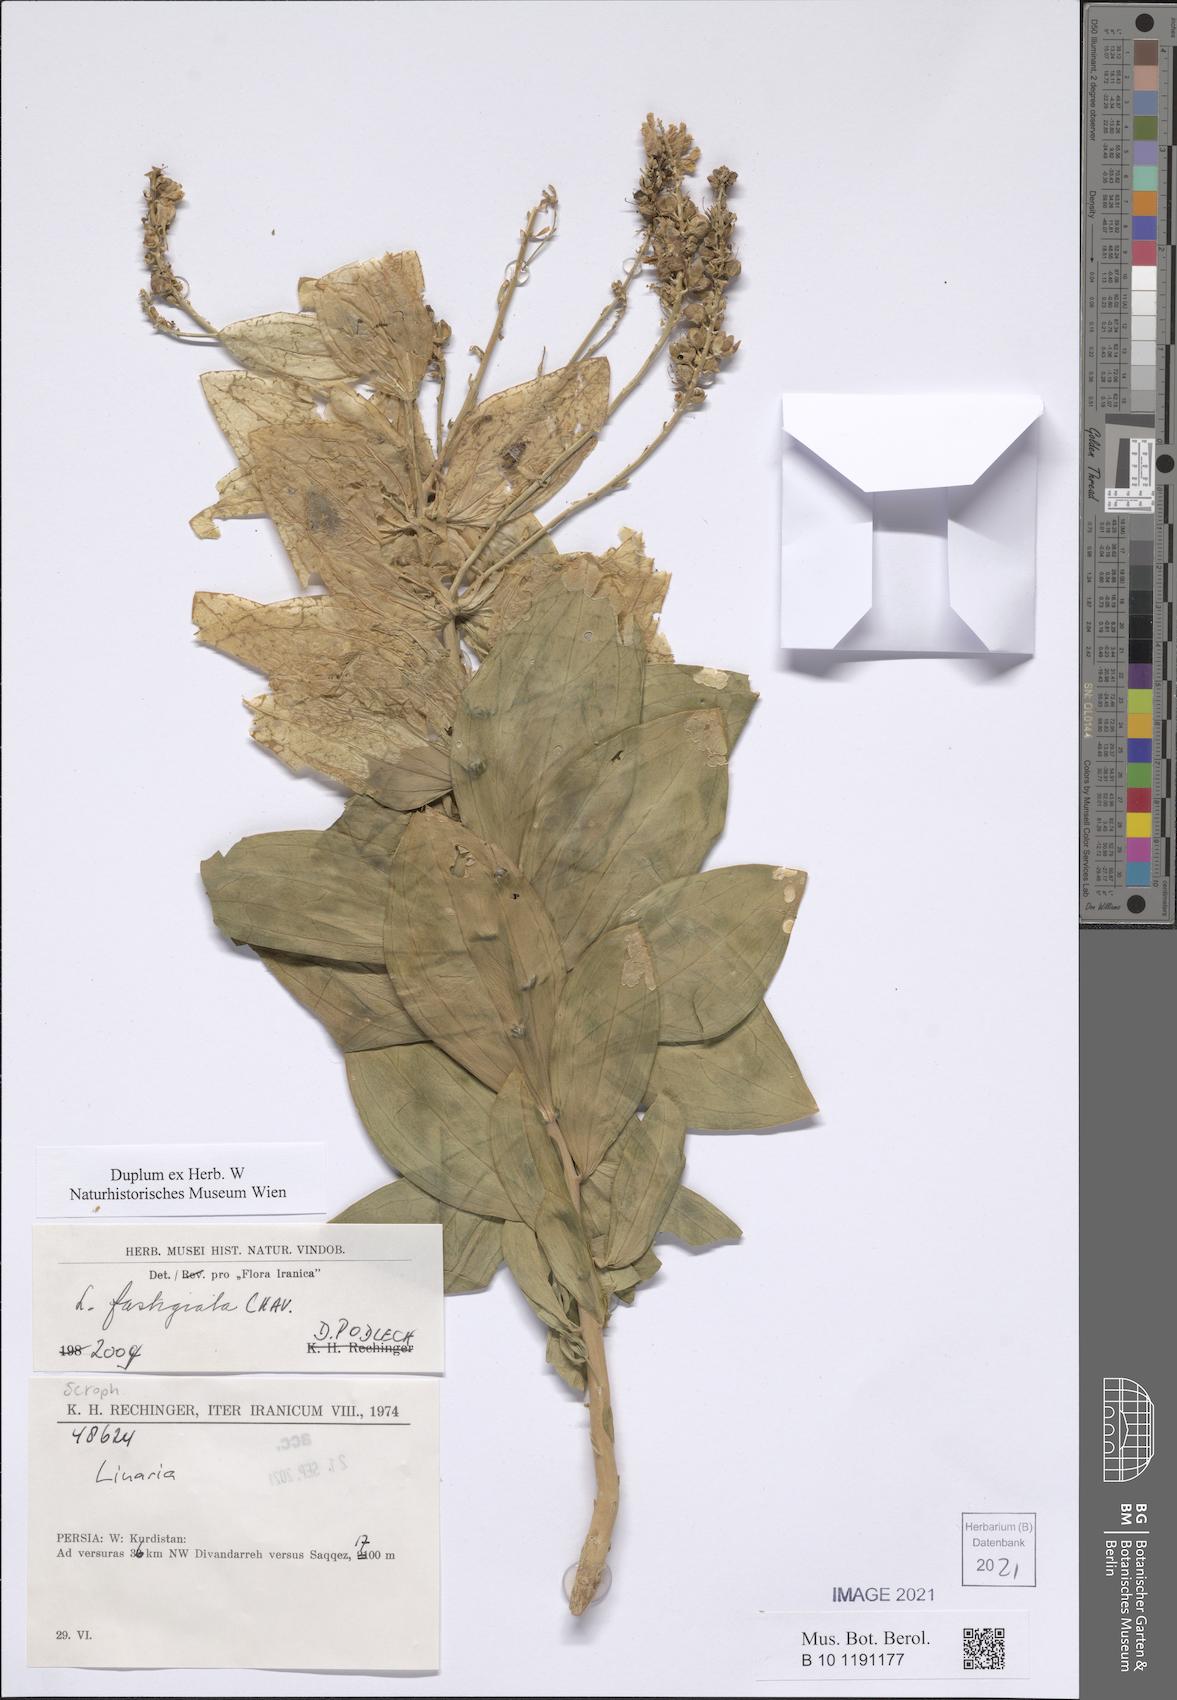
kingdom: Plantae
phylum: Tracheophyta
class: Magnoliopsida
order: Lamiales
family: Plantaginaceae
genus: Linaria
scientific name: Linaria fastigiata
